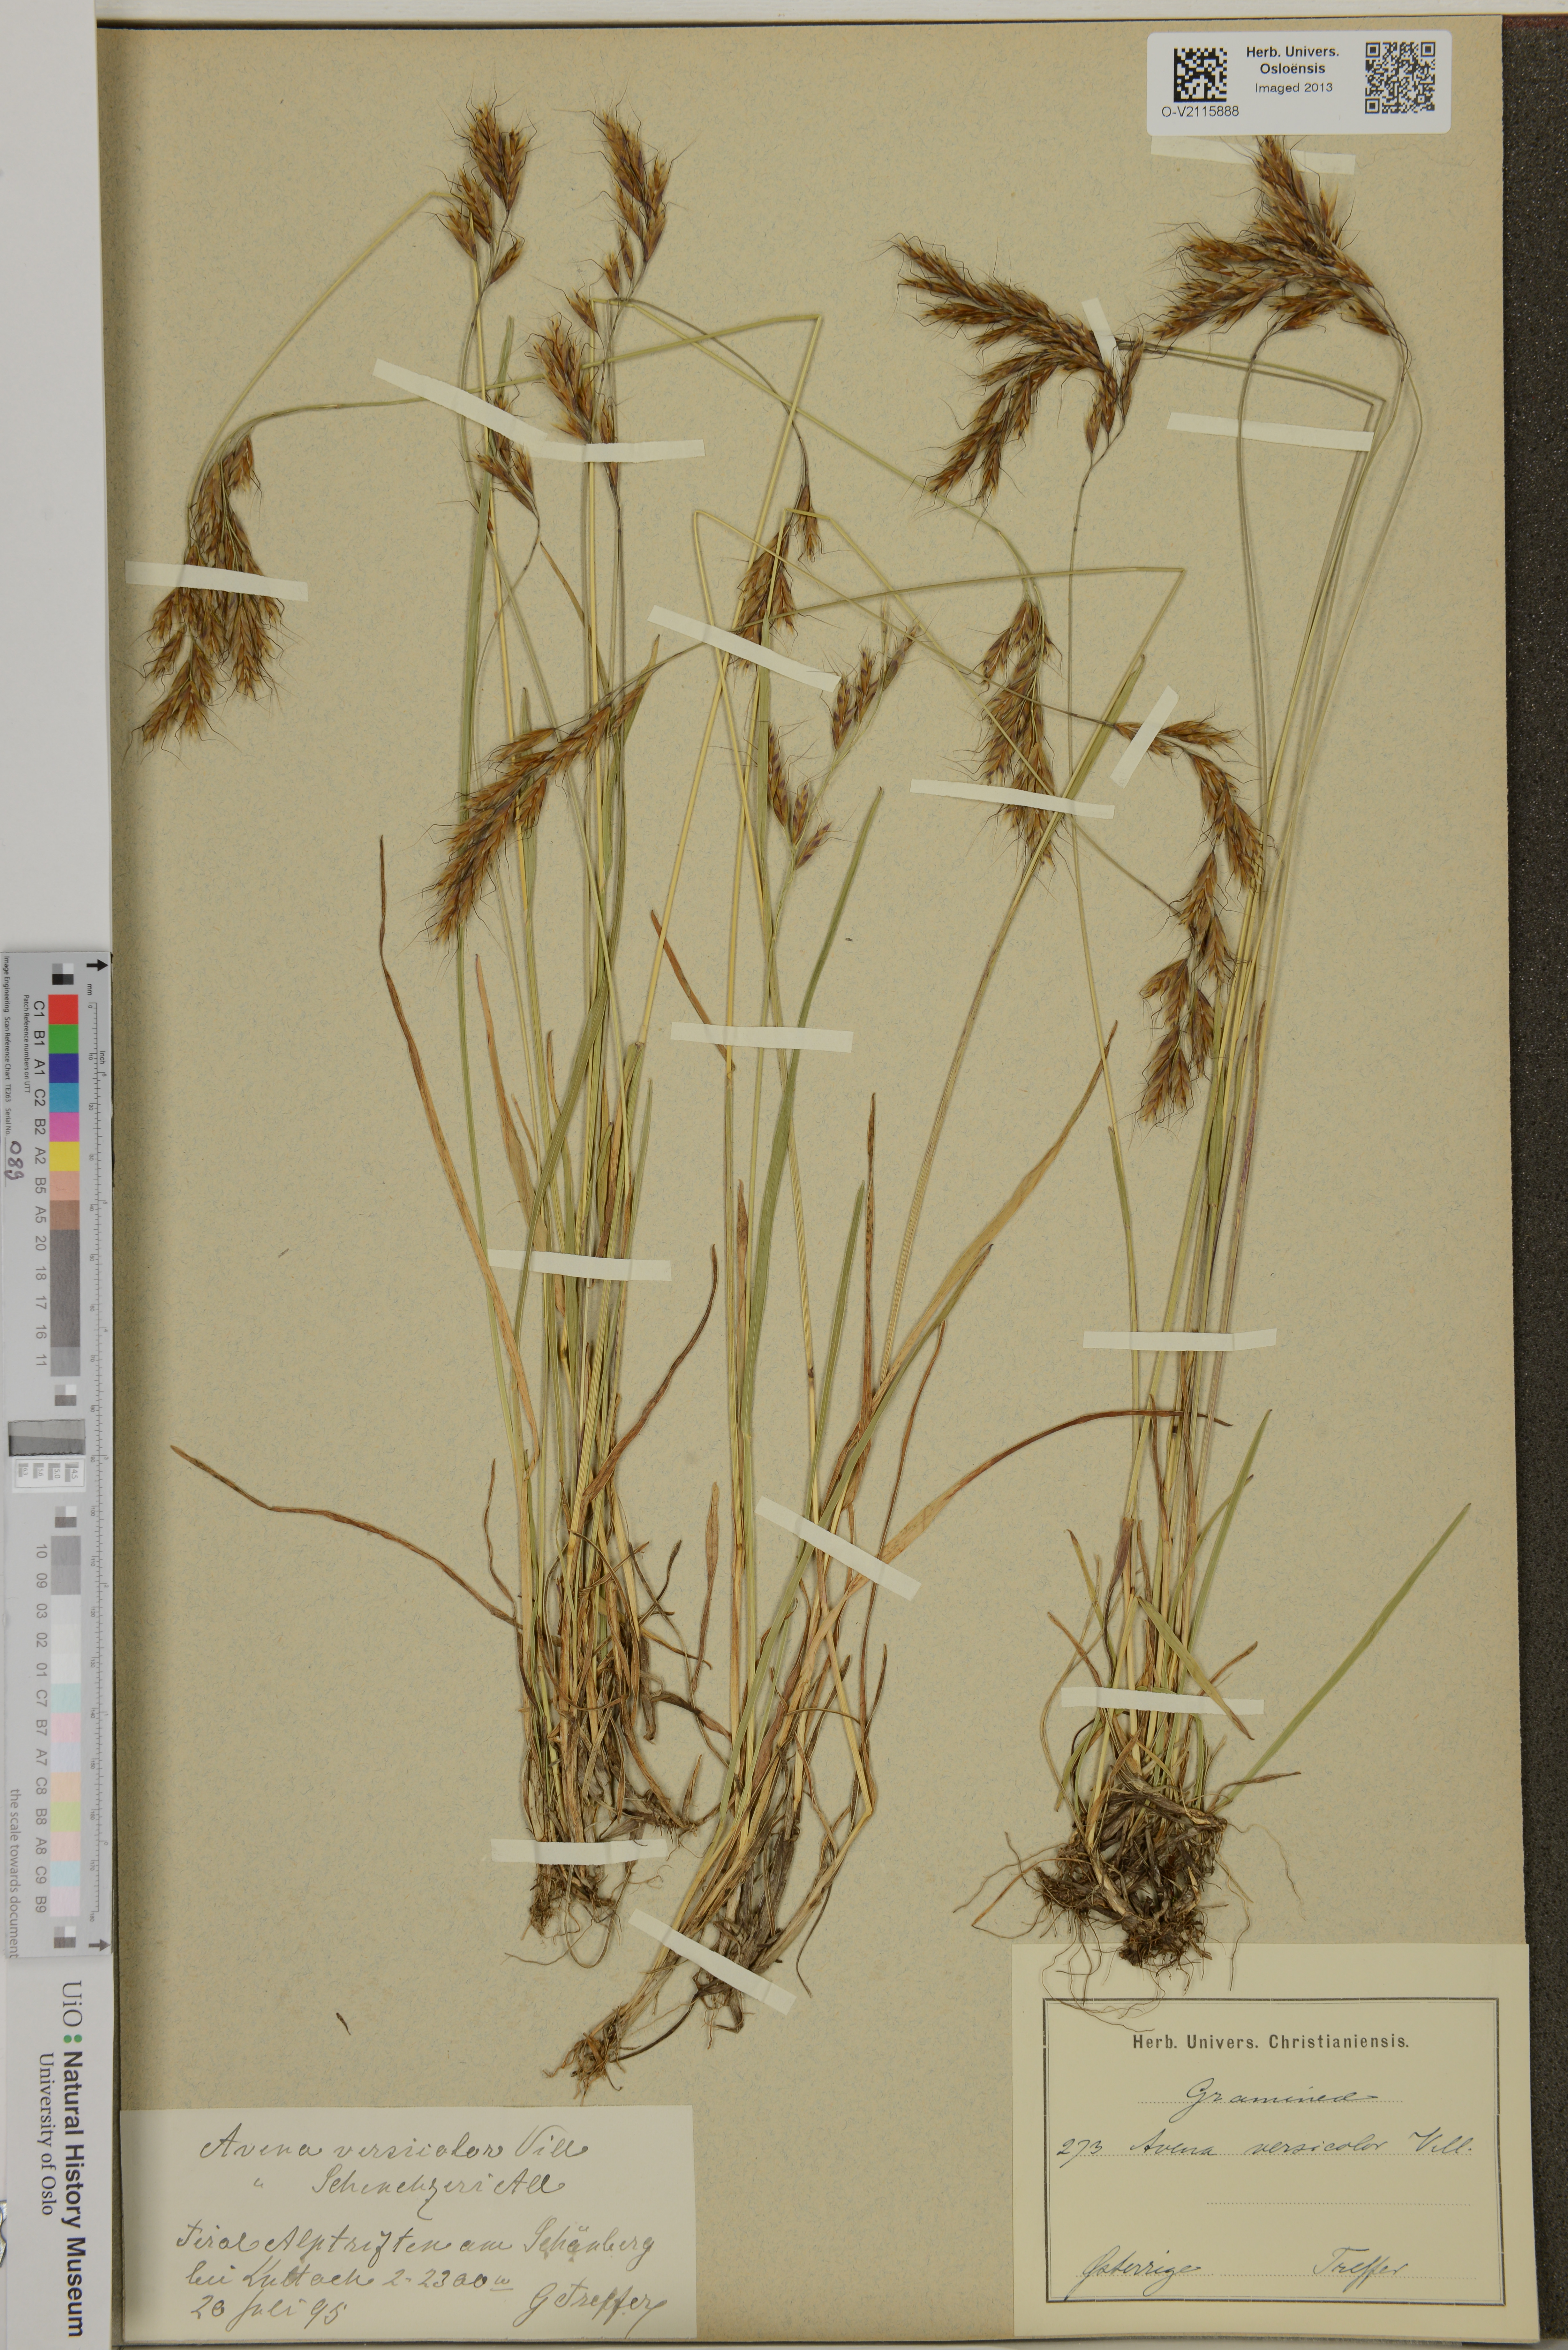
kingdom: Plantae
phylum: Tracheophyta
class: Liliopsida
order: Poales
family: Poaceae
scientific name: Poaceae
